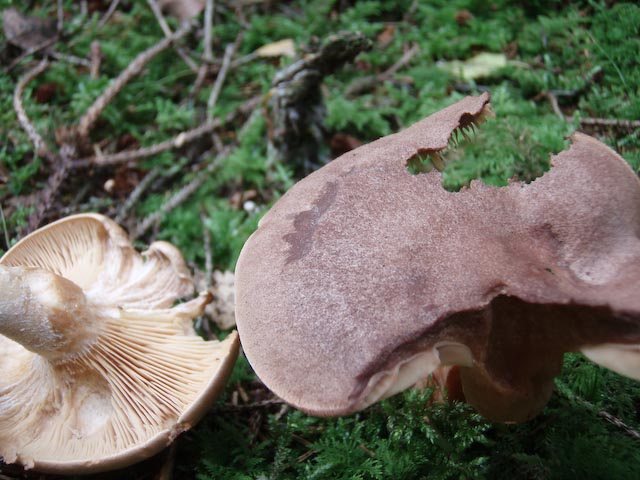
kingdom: Fungi
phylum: Basidiomycota
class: Agaricomycetes
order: Russulales
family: Russulaceae
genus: Lactarius
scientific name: Lactarius helvus
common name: mose-mælkehat
